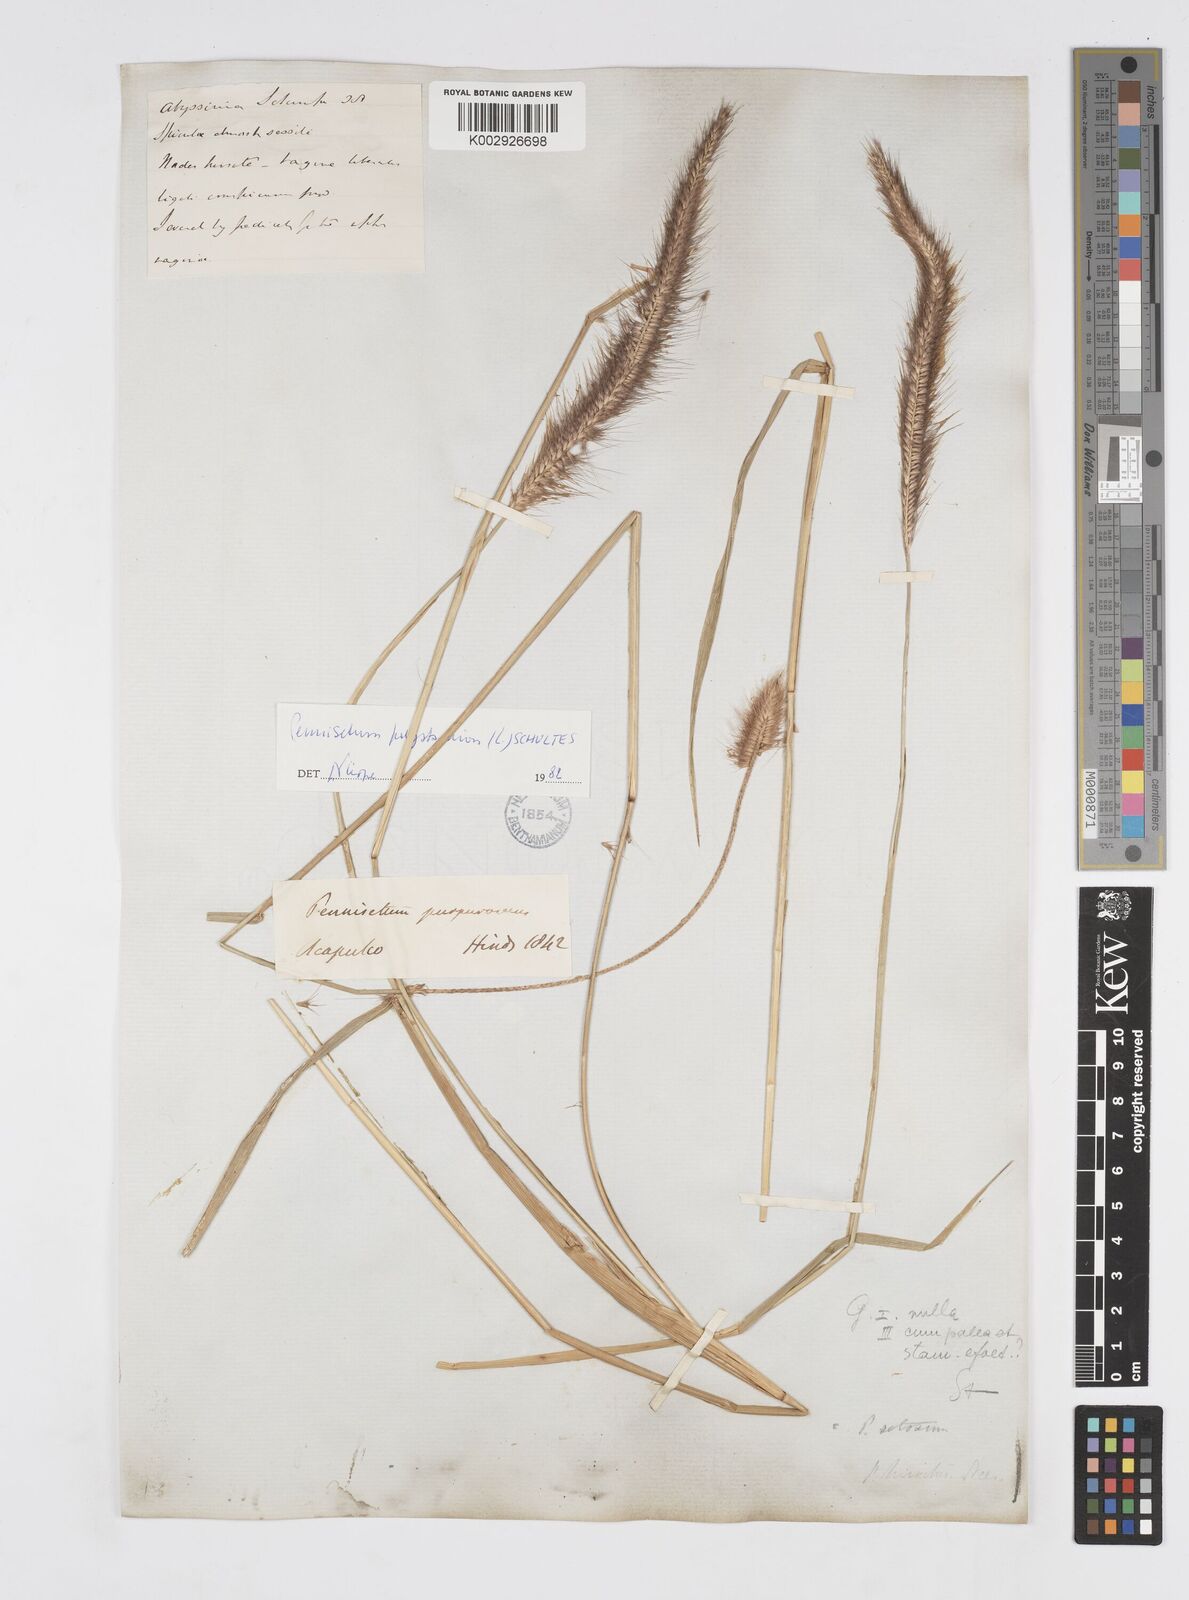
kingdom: Plantae
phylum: Tracheophyta
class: Liliopsida
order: Poales
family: Poaceae
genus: Cenchrus
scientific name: Cenchrus setosus
